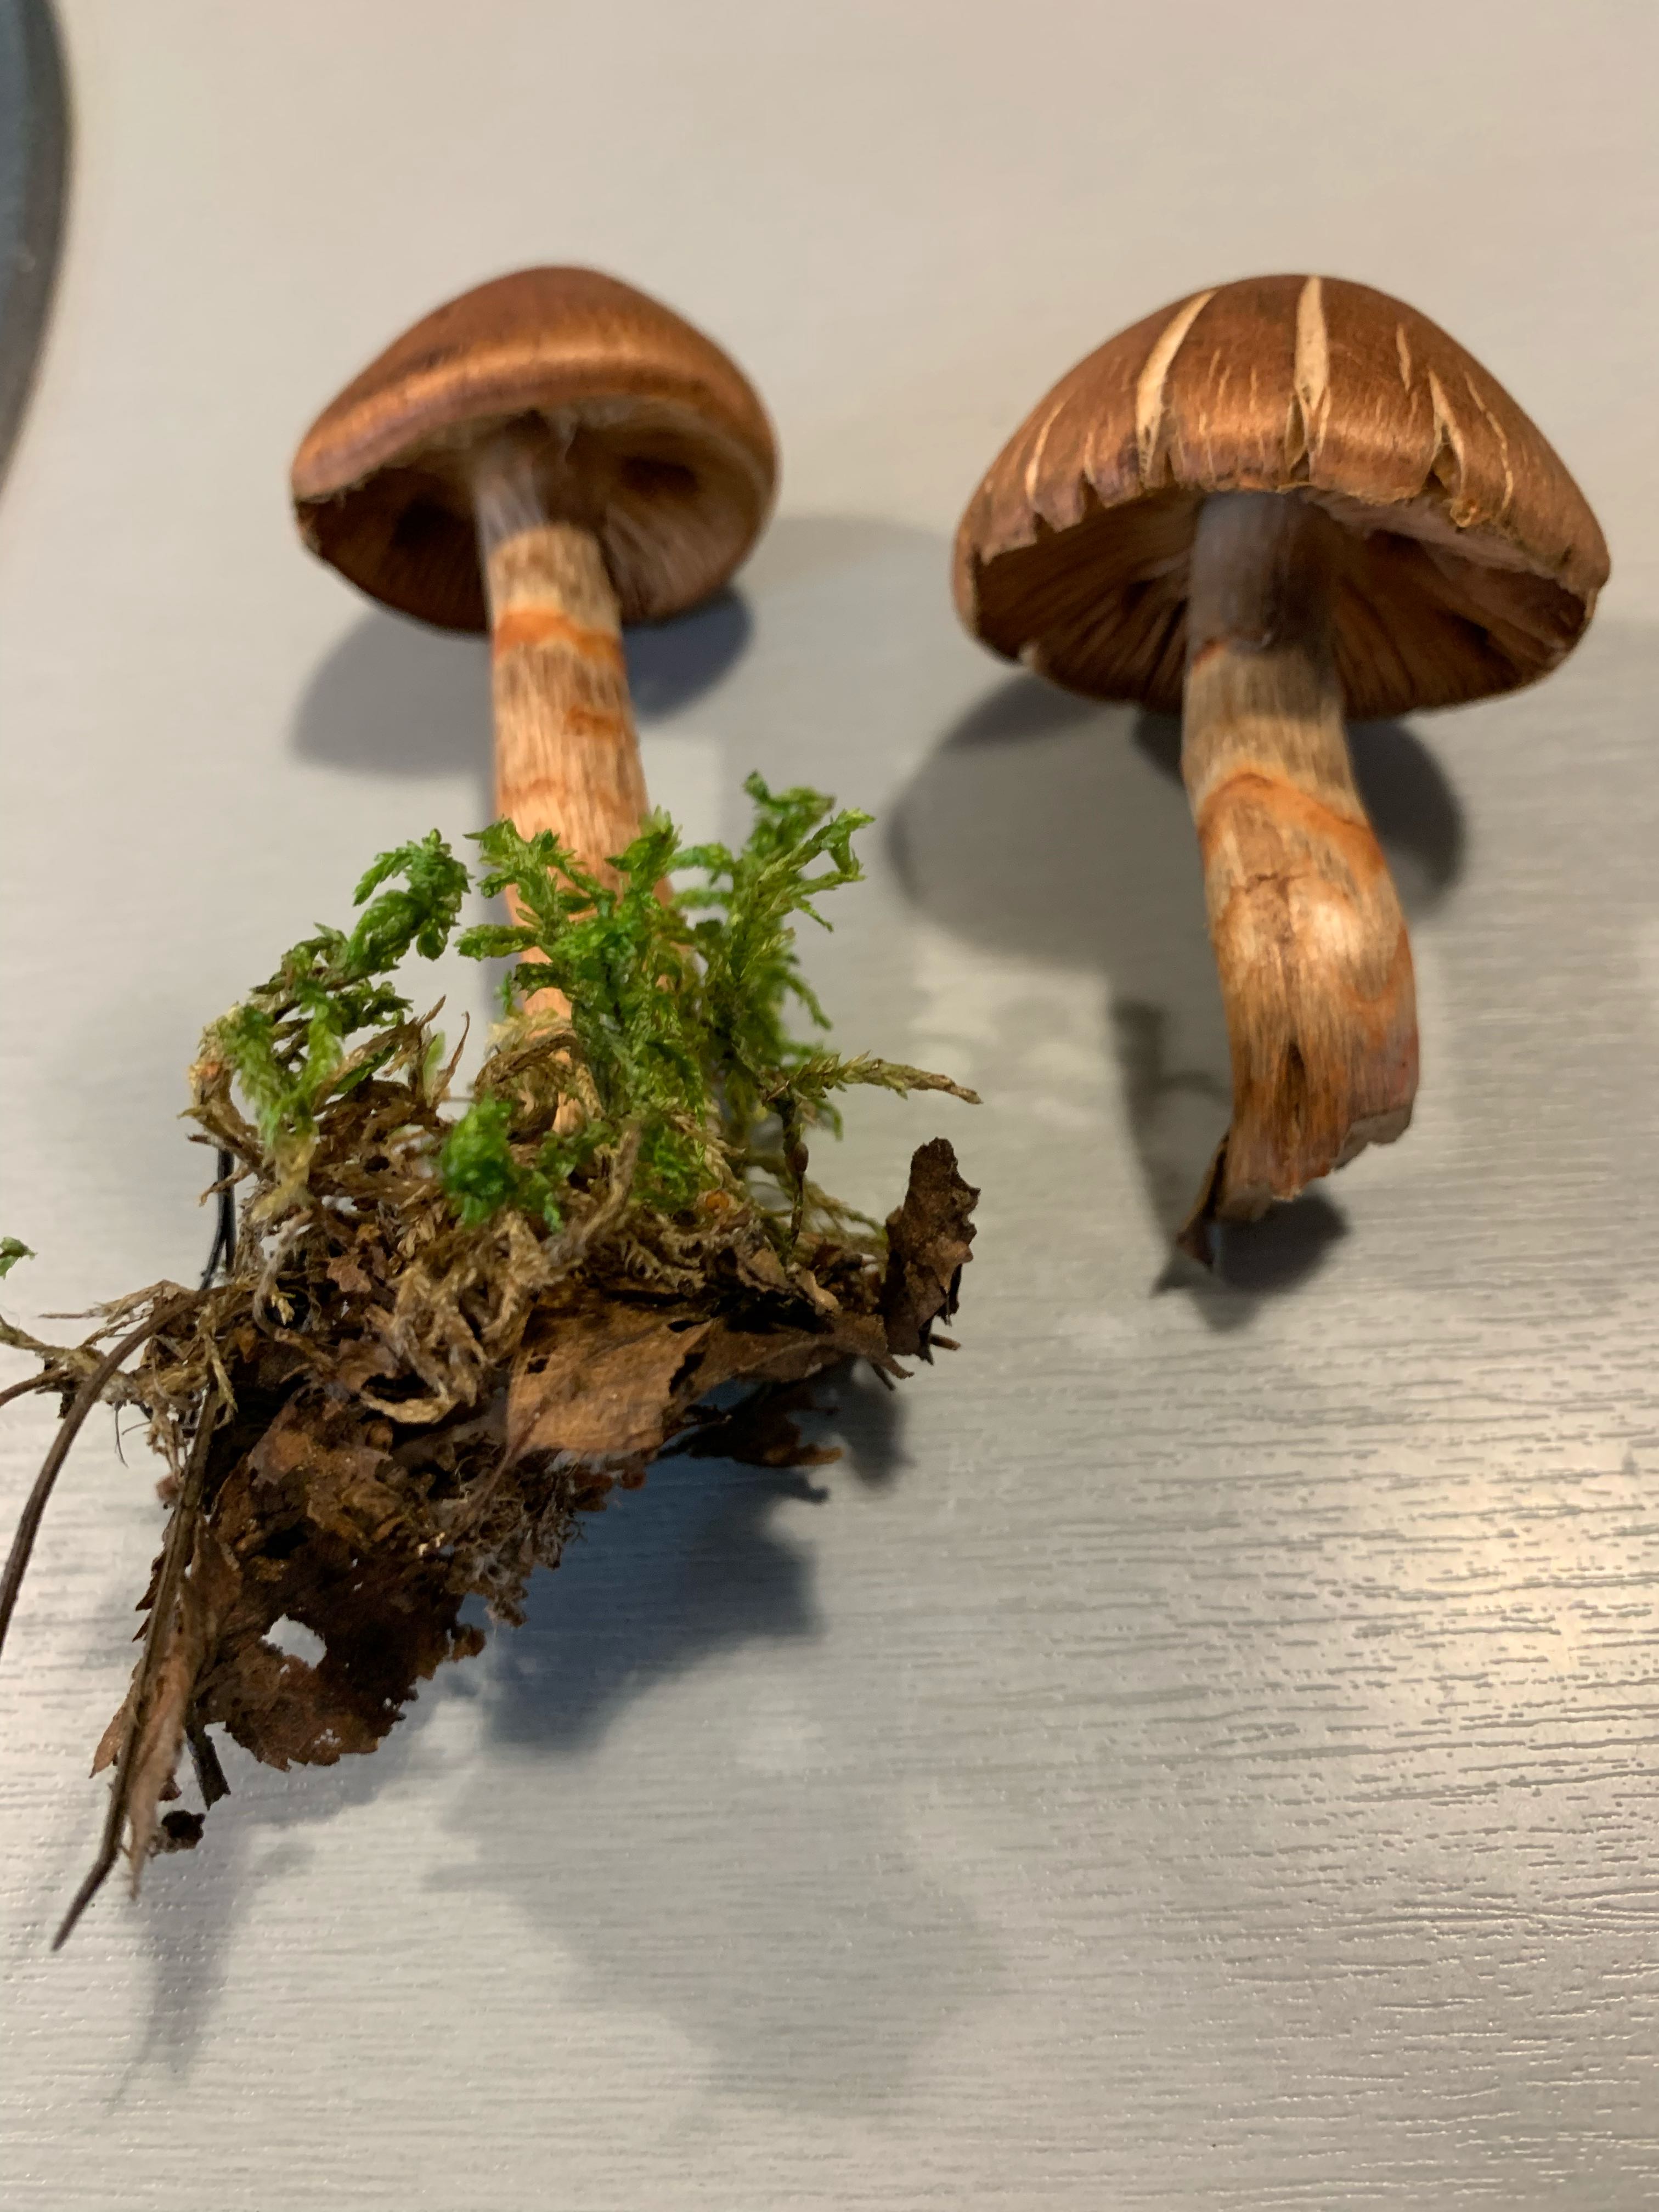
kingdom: Fungi
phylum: Basidiomycota
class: Agaricomycetes
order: Agaricales
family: Cortinariaceae
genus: Cortinarius
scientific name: Cortinarius armillatus
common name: cinnoberbæltet slørhat
